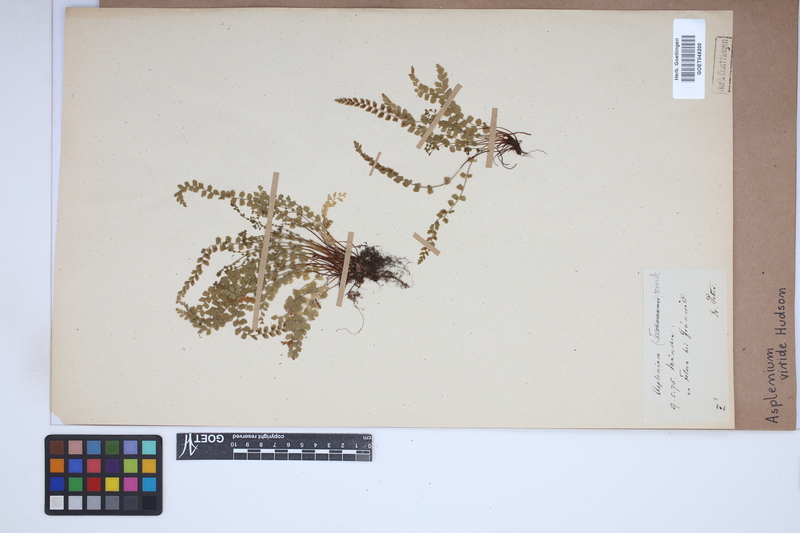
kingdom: Plantae
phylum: Tracheophyta
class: Polypodiopsida
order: Polypodiales
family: Aspleniaceae
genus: Asplenium
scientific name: Asplenium viride
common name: Green spleenwort
